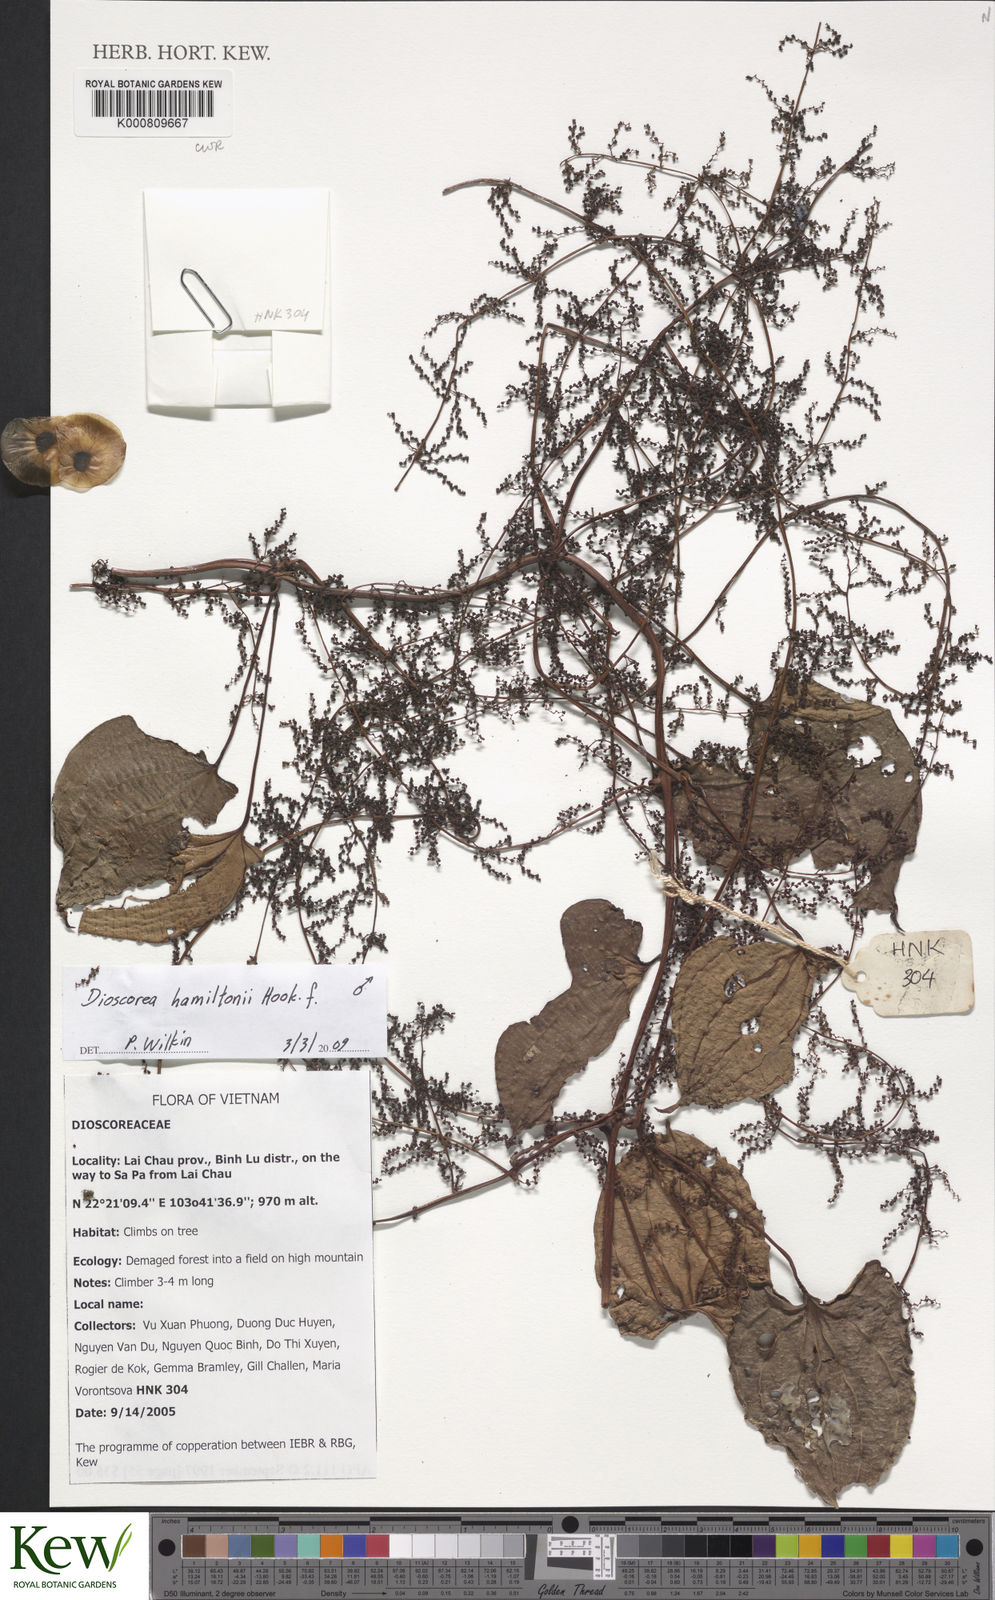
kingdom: Plantae
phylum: Tracheophyta
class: Liliopsida
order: Dioscoreales
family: Dioscoreaceae
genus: Dioscorea
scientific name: Dioscorea hamiltonii
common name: Mountain yam
